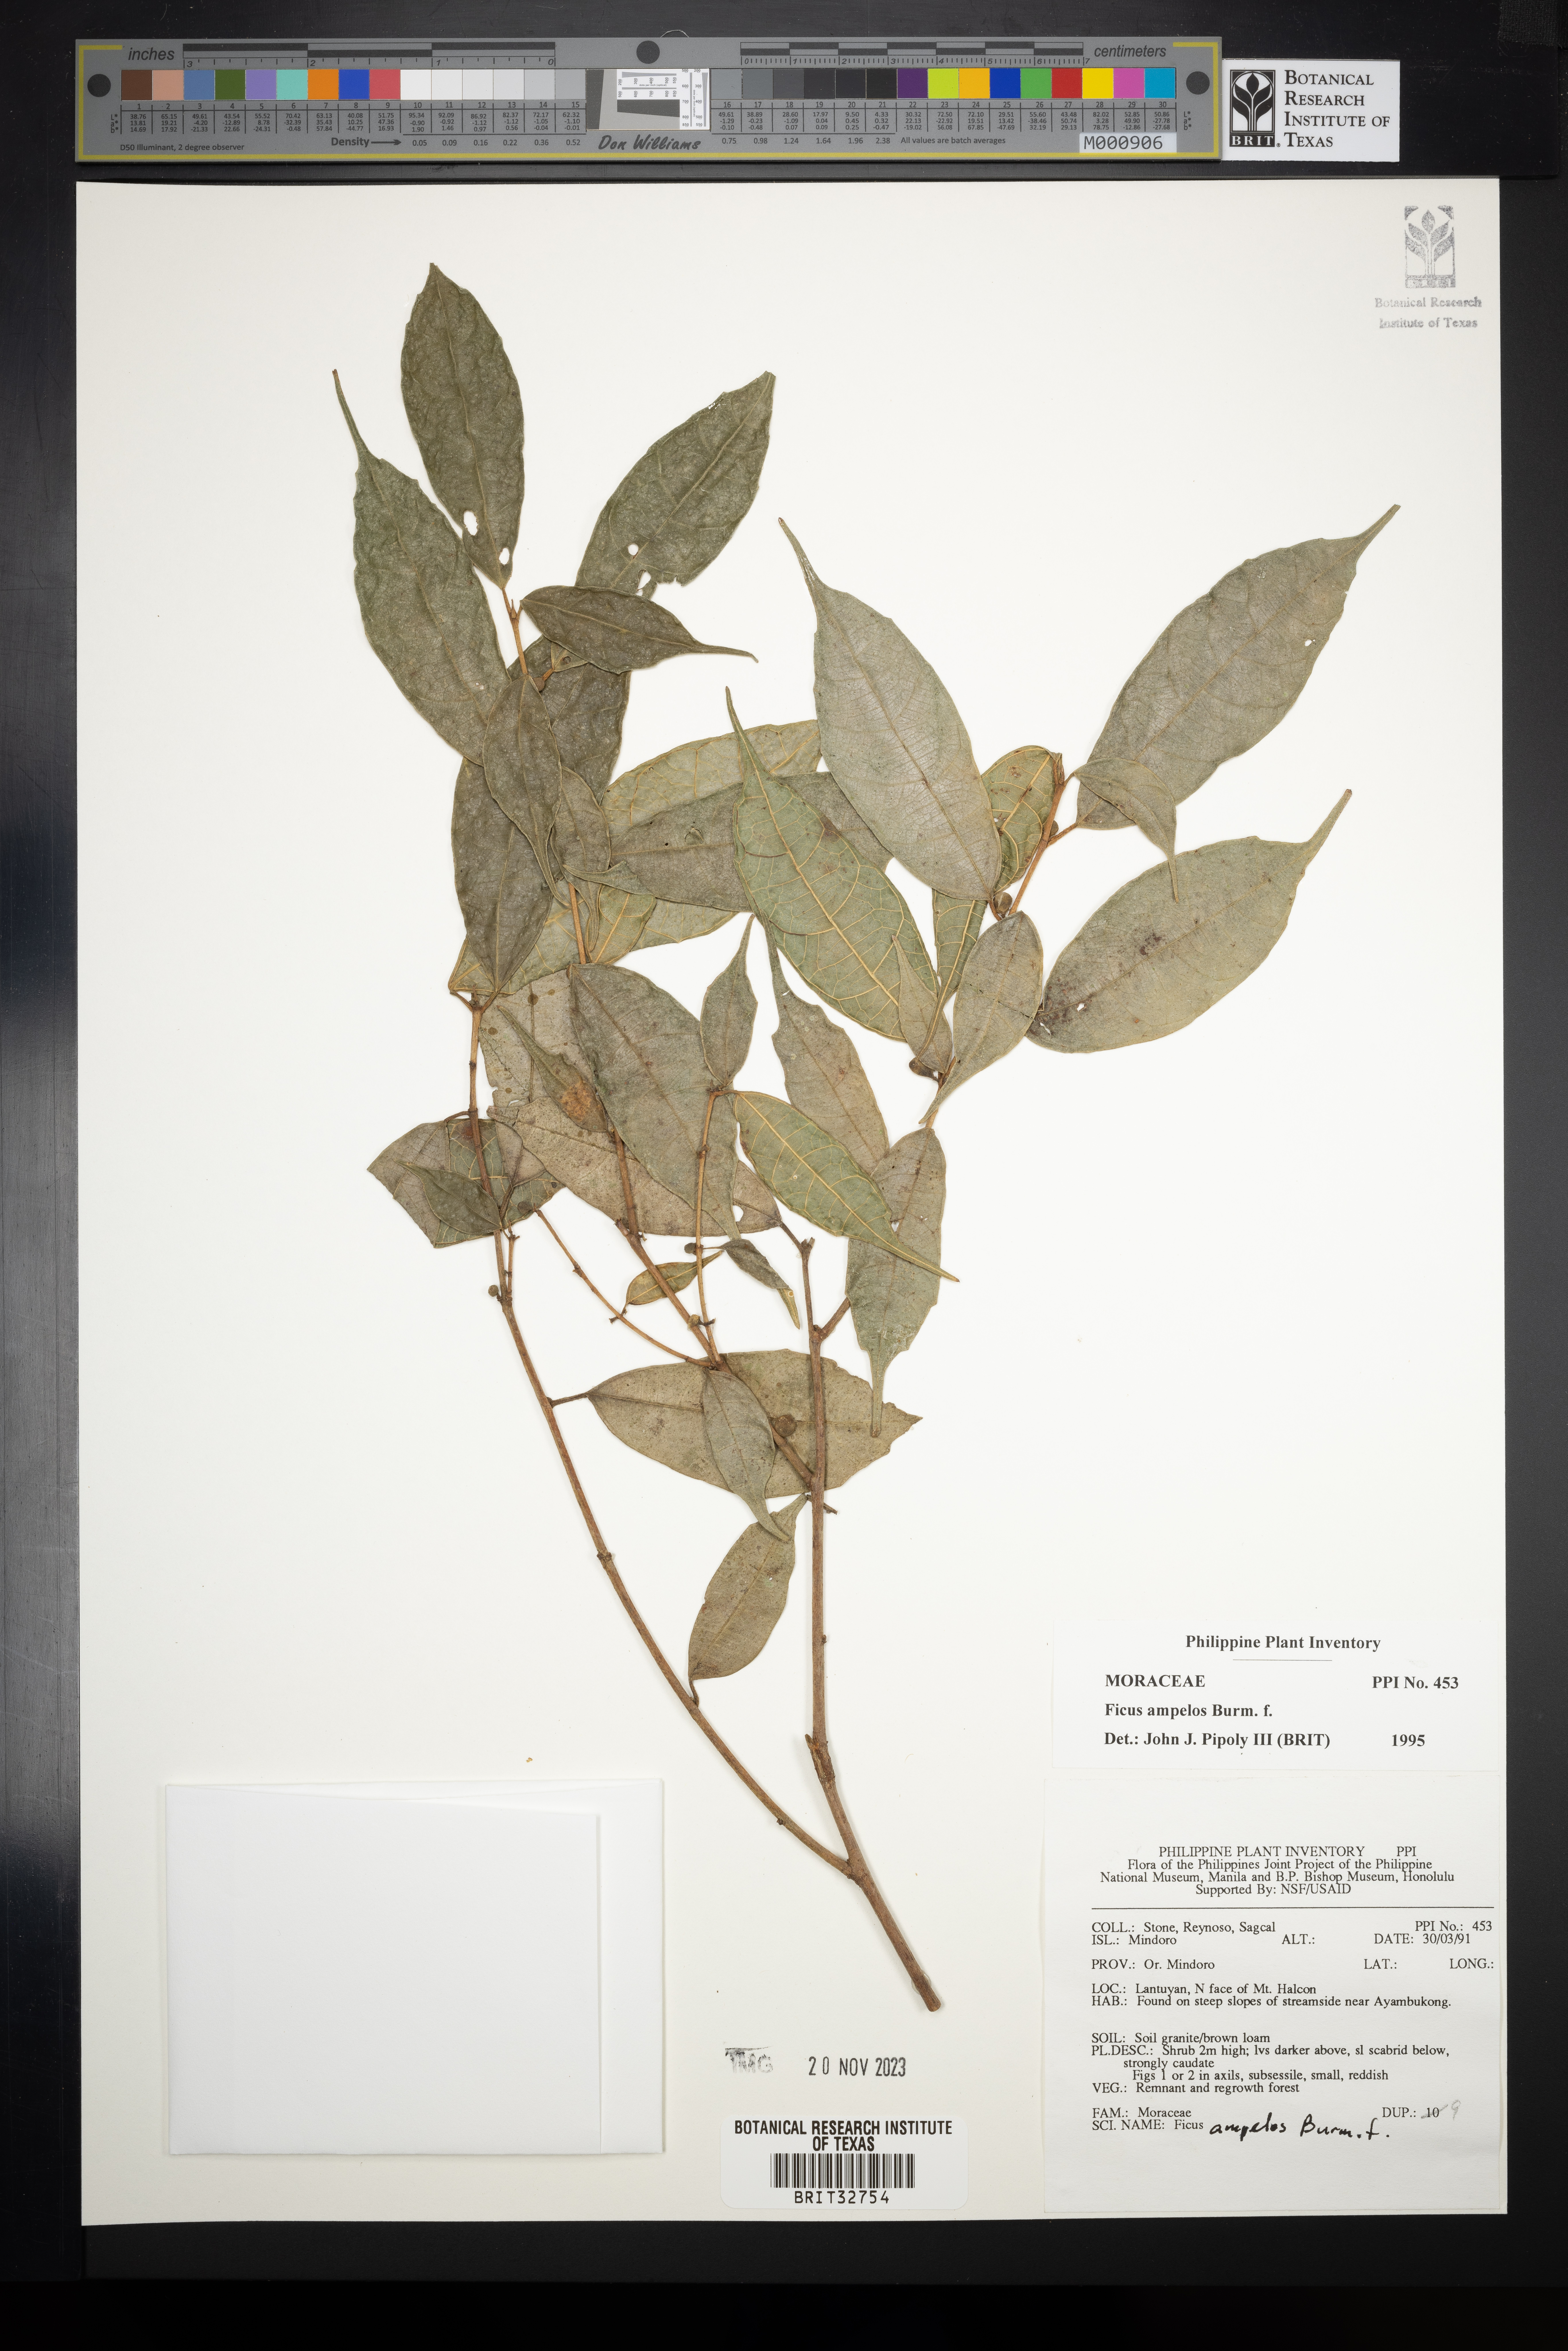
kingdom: Plantae
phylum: Tracheophyta
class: Magnoliopsida
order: Rosales
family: Moraceae
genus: Ficus
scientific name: Ficus ampelos
